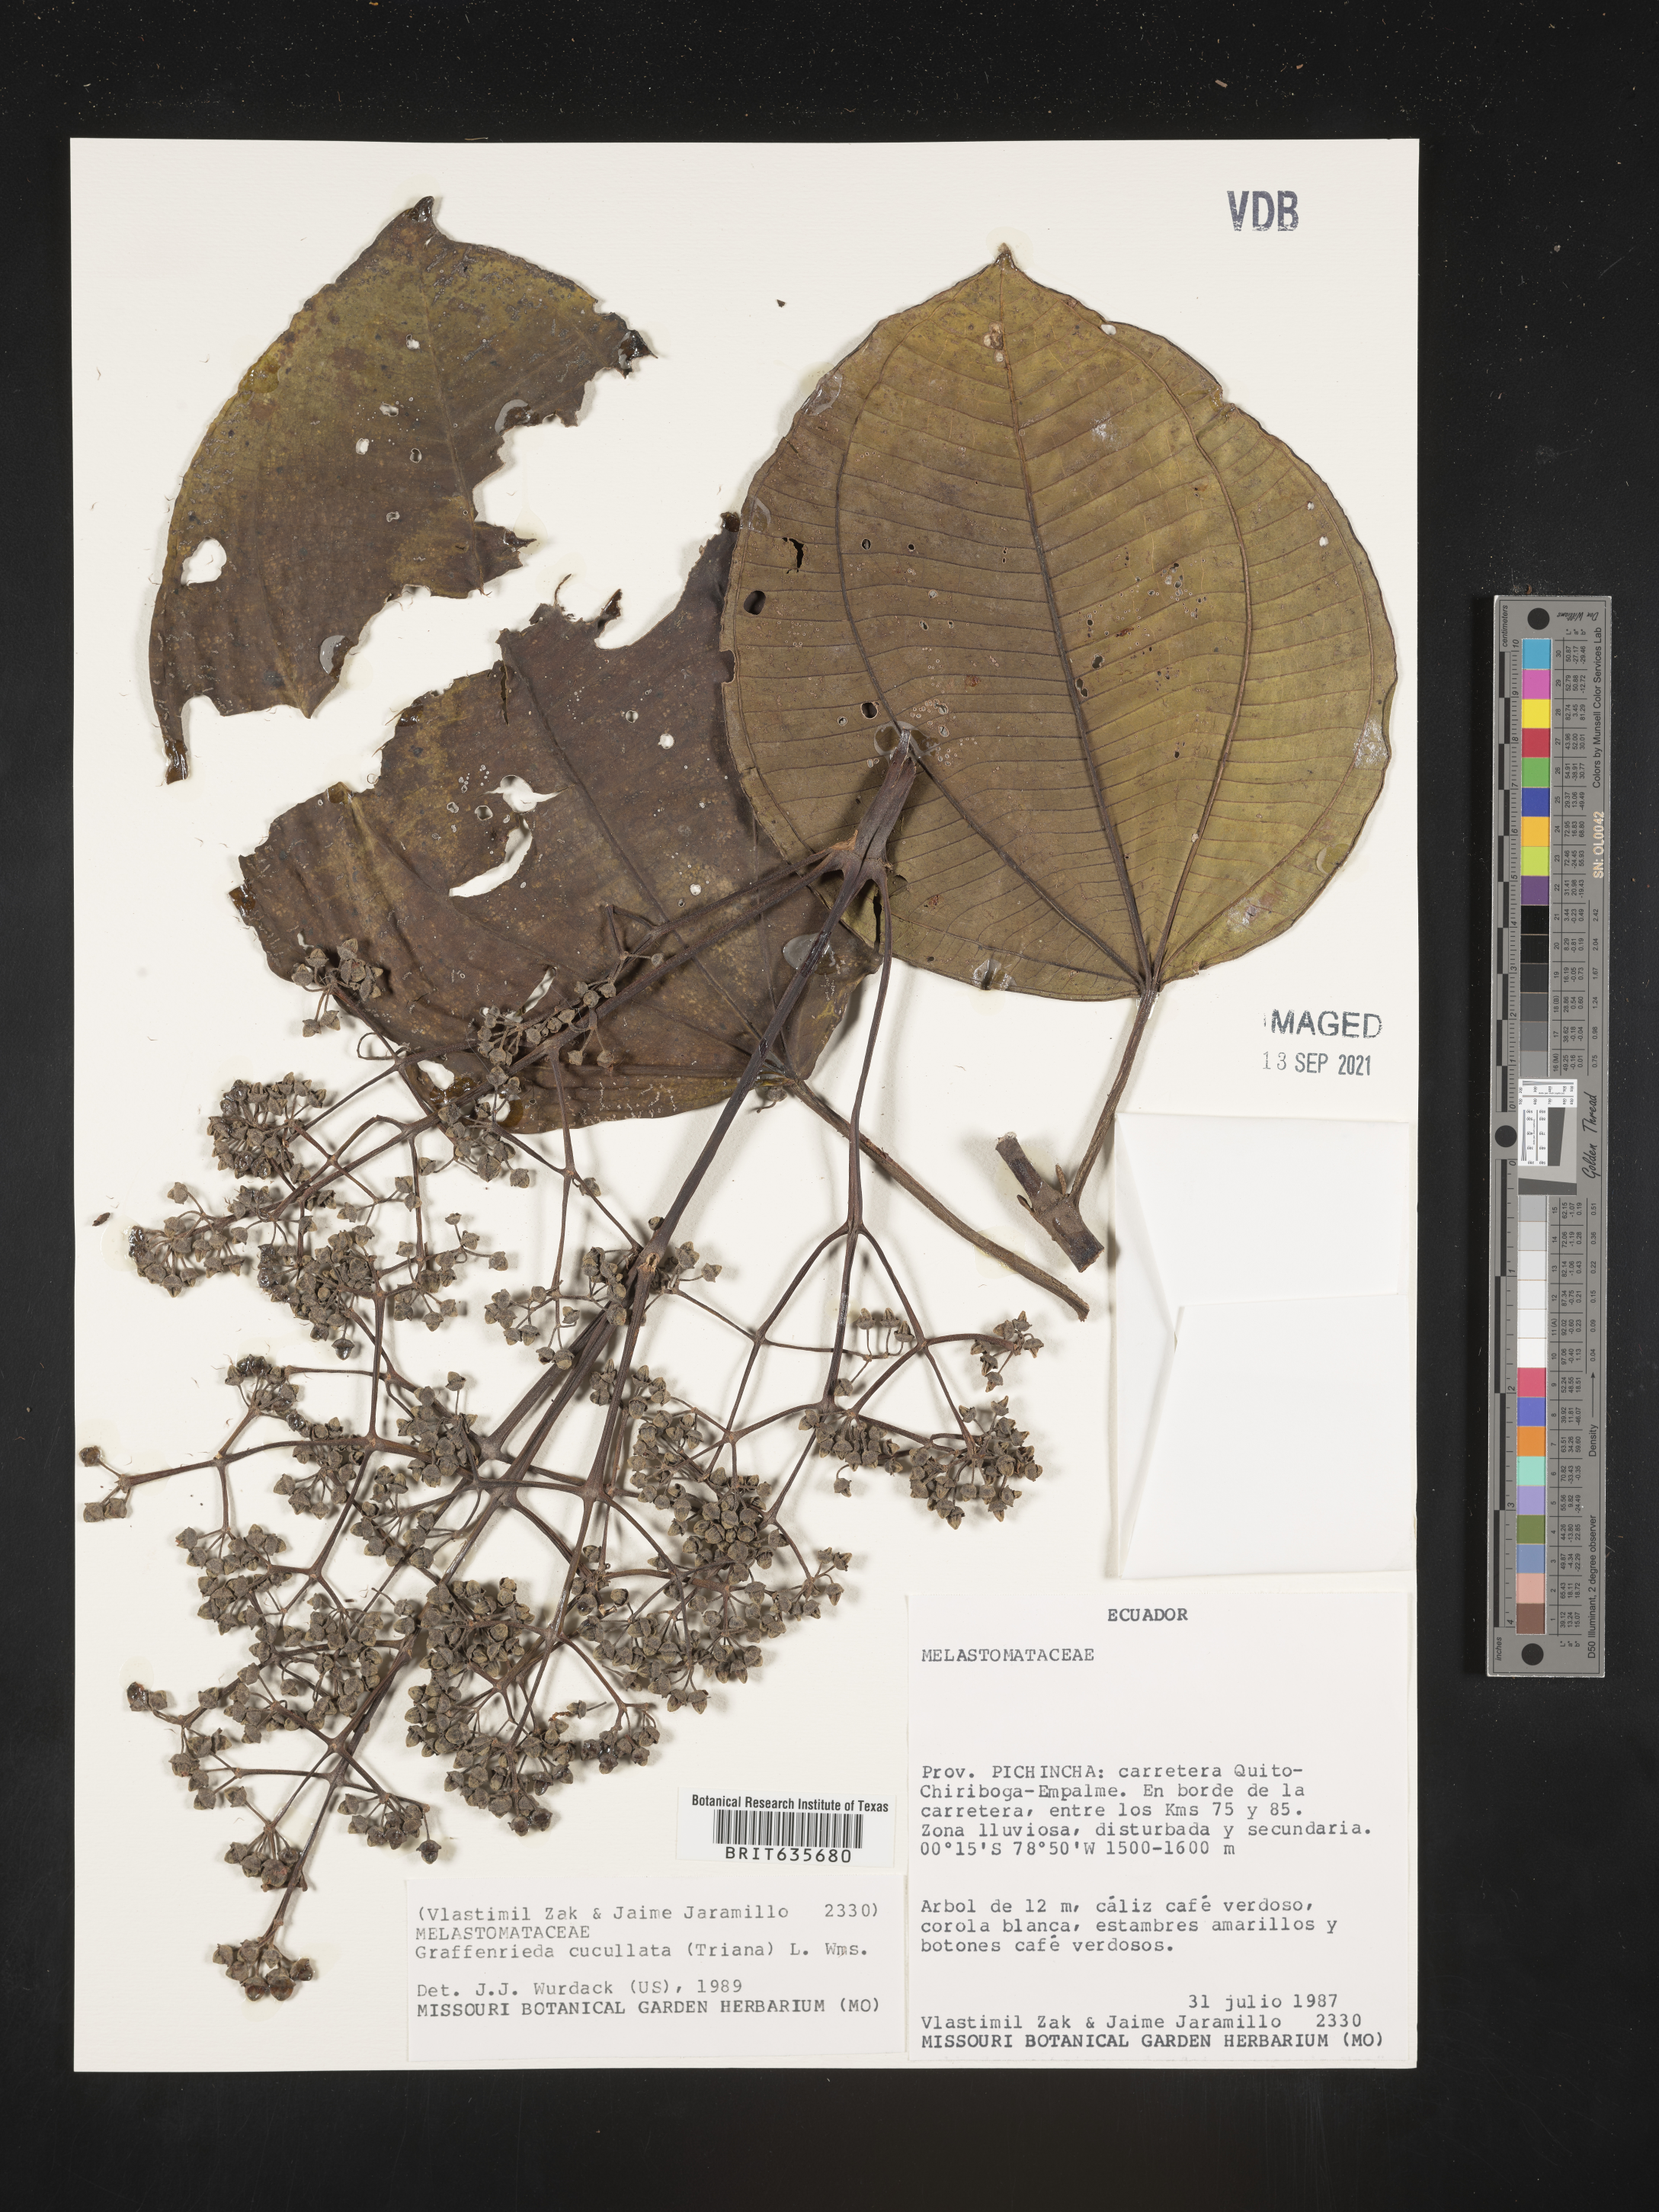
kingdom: Plantae
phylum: Tracheophyta
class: Magnoliopsida
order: Myrtales
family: Melastomataceae
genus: Graffenrieda
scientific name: Graffenrieda
